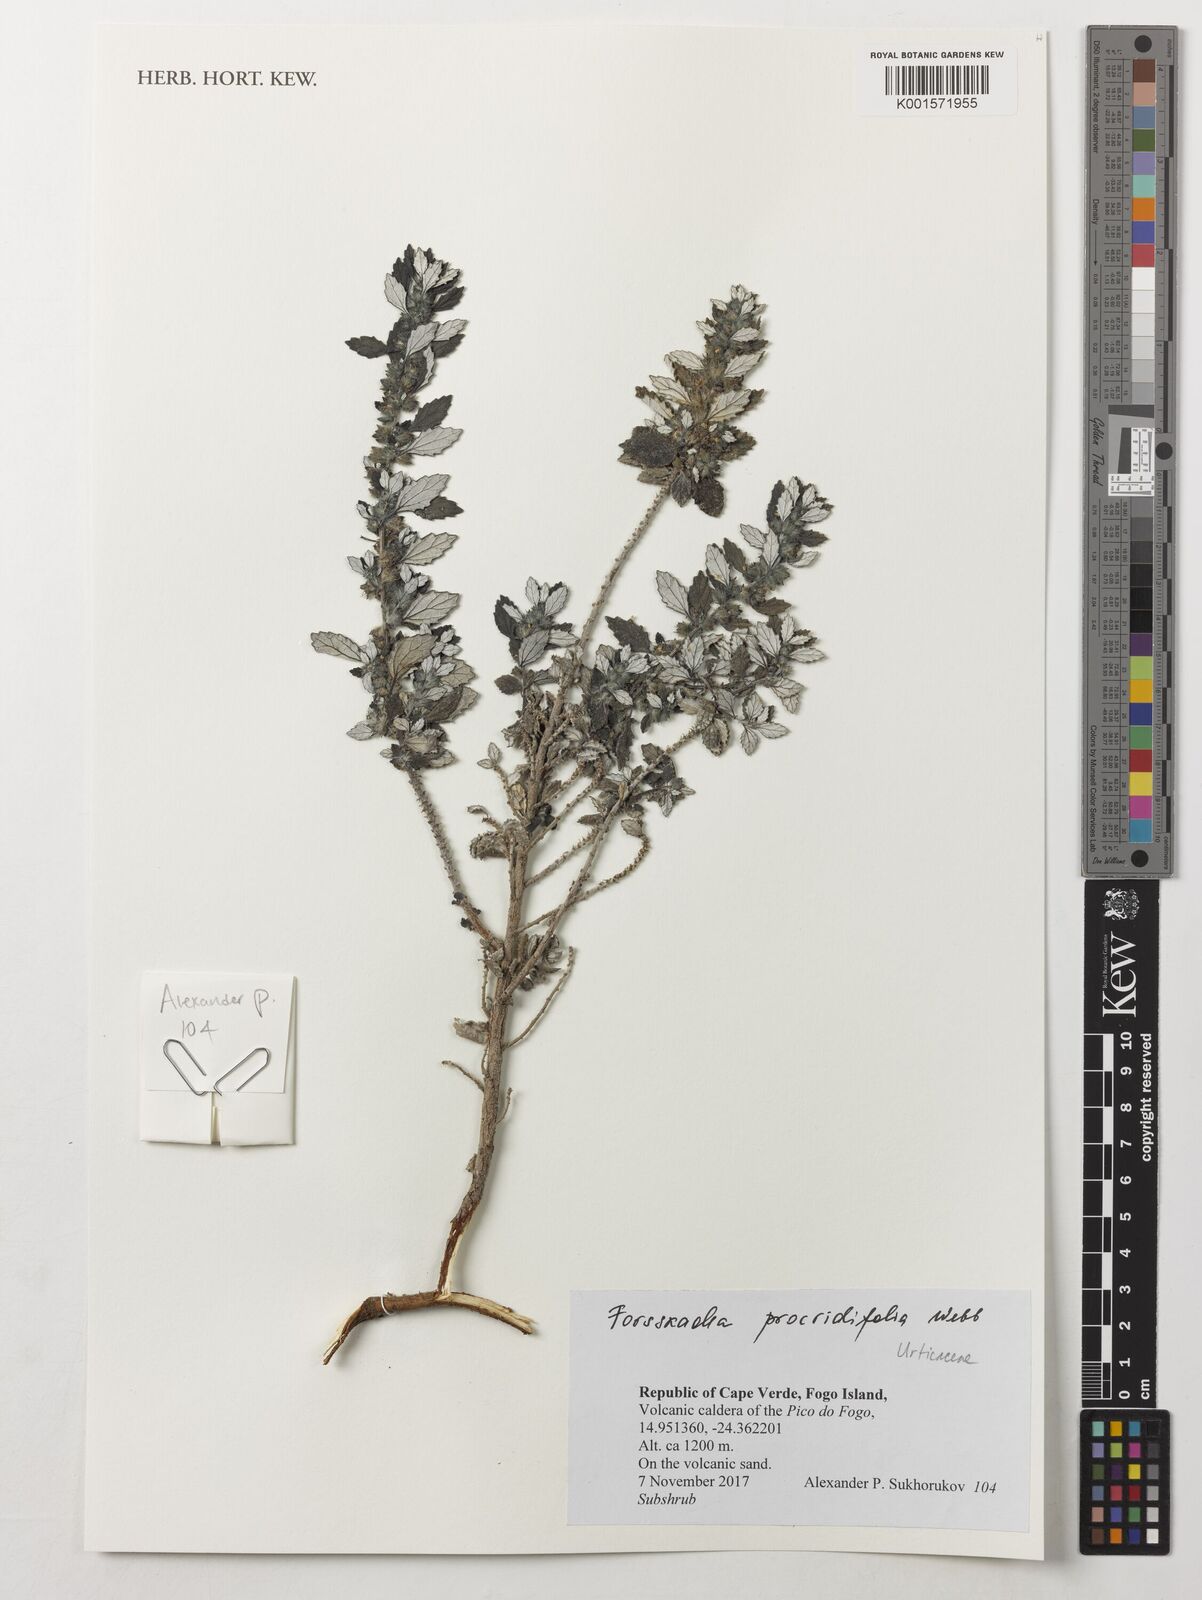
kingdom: Plantae
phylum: Tracheophyta
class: Magnoliopsida
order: Rosales
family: Urticaceae
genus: Forsskaolea
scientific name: Forsskaolea procridifolia
